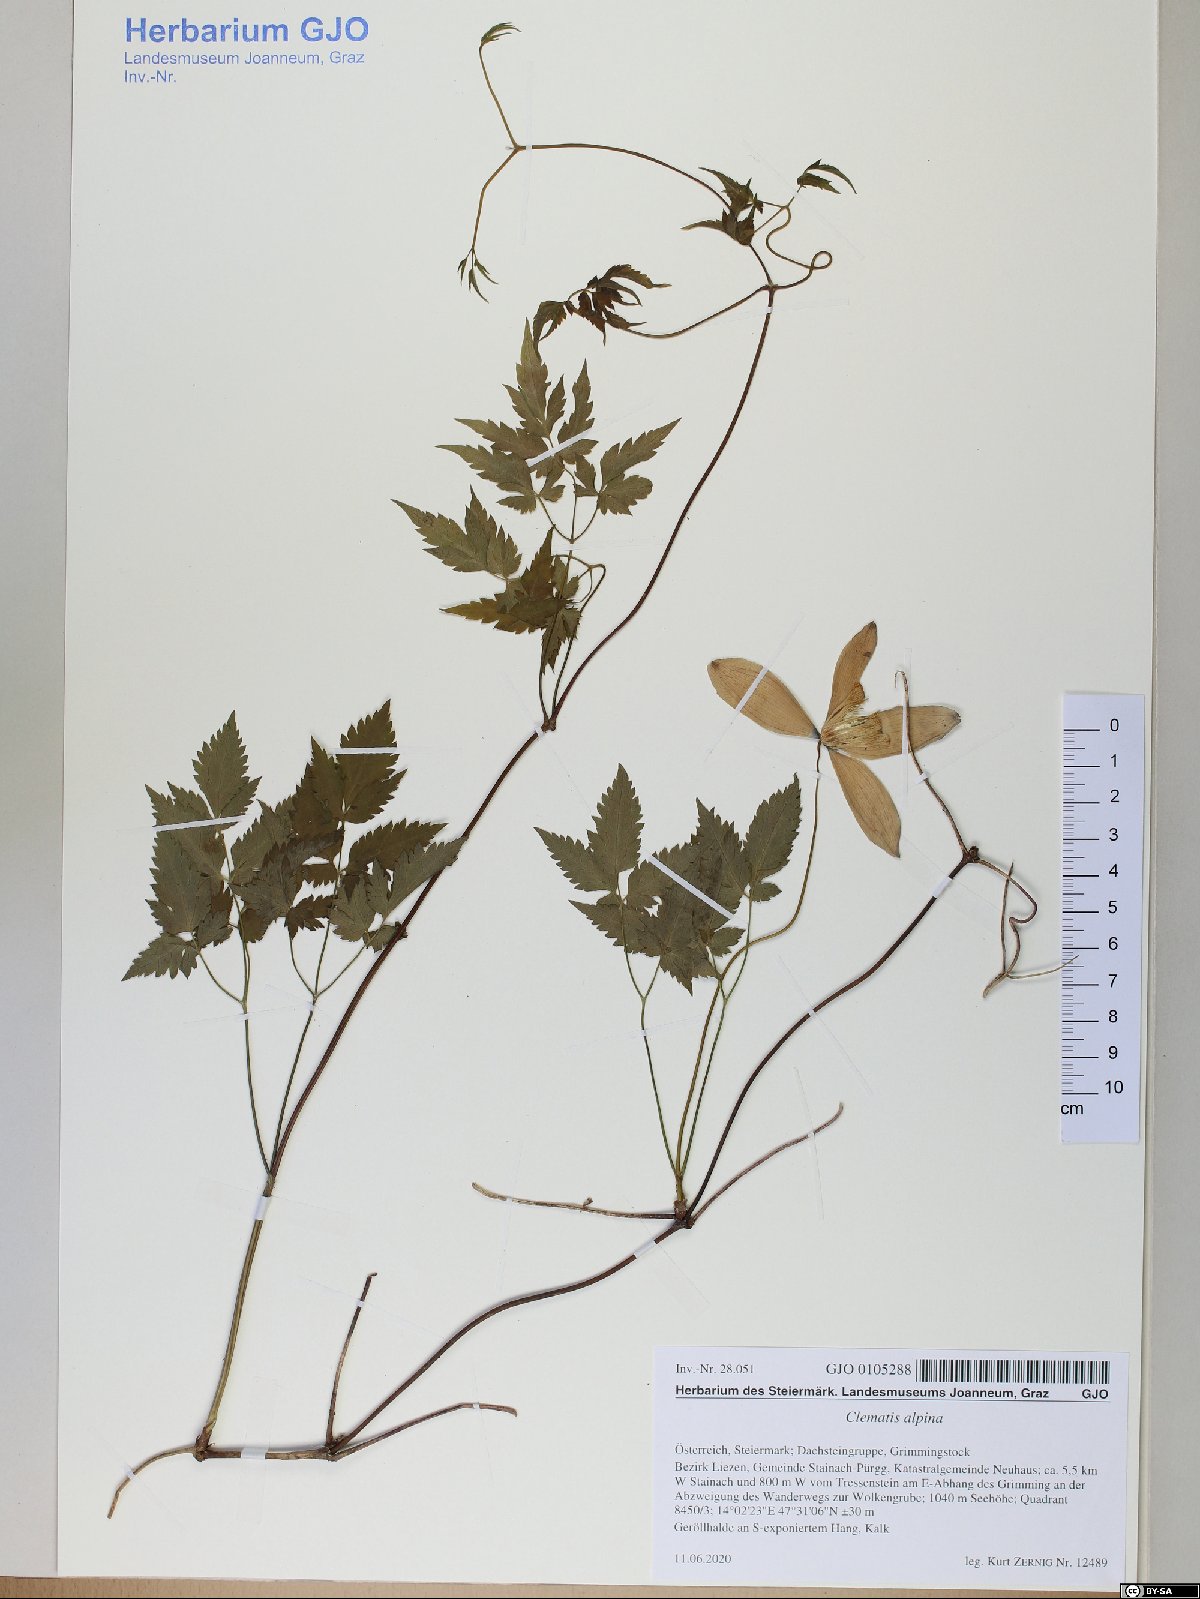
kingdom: Plantae
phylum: Tracheophyta
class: Magnoliopsida
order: Ranunculales
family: Ranunculaceae
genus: Clematis
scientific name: Clematis alpina
